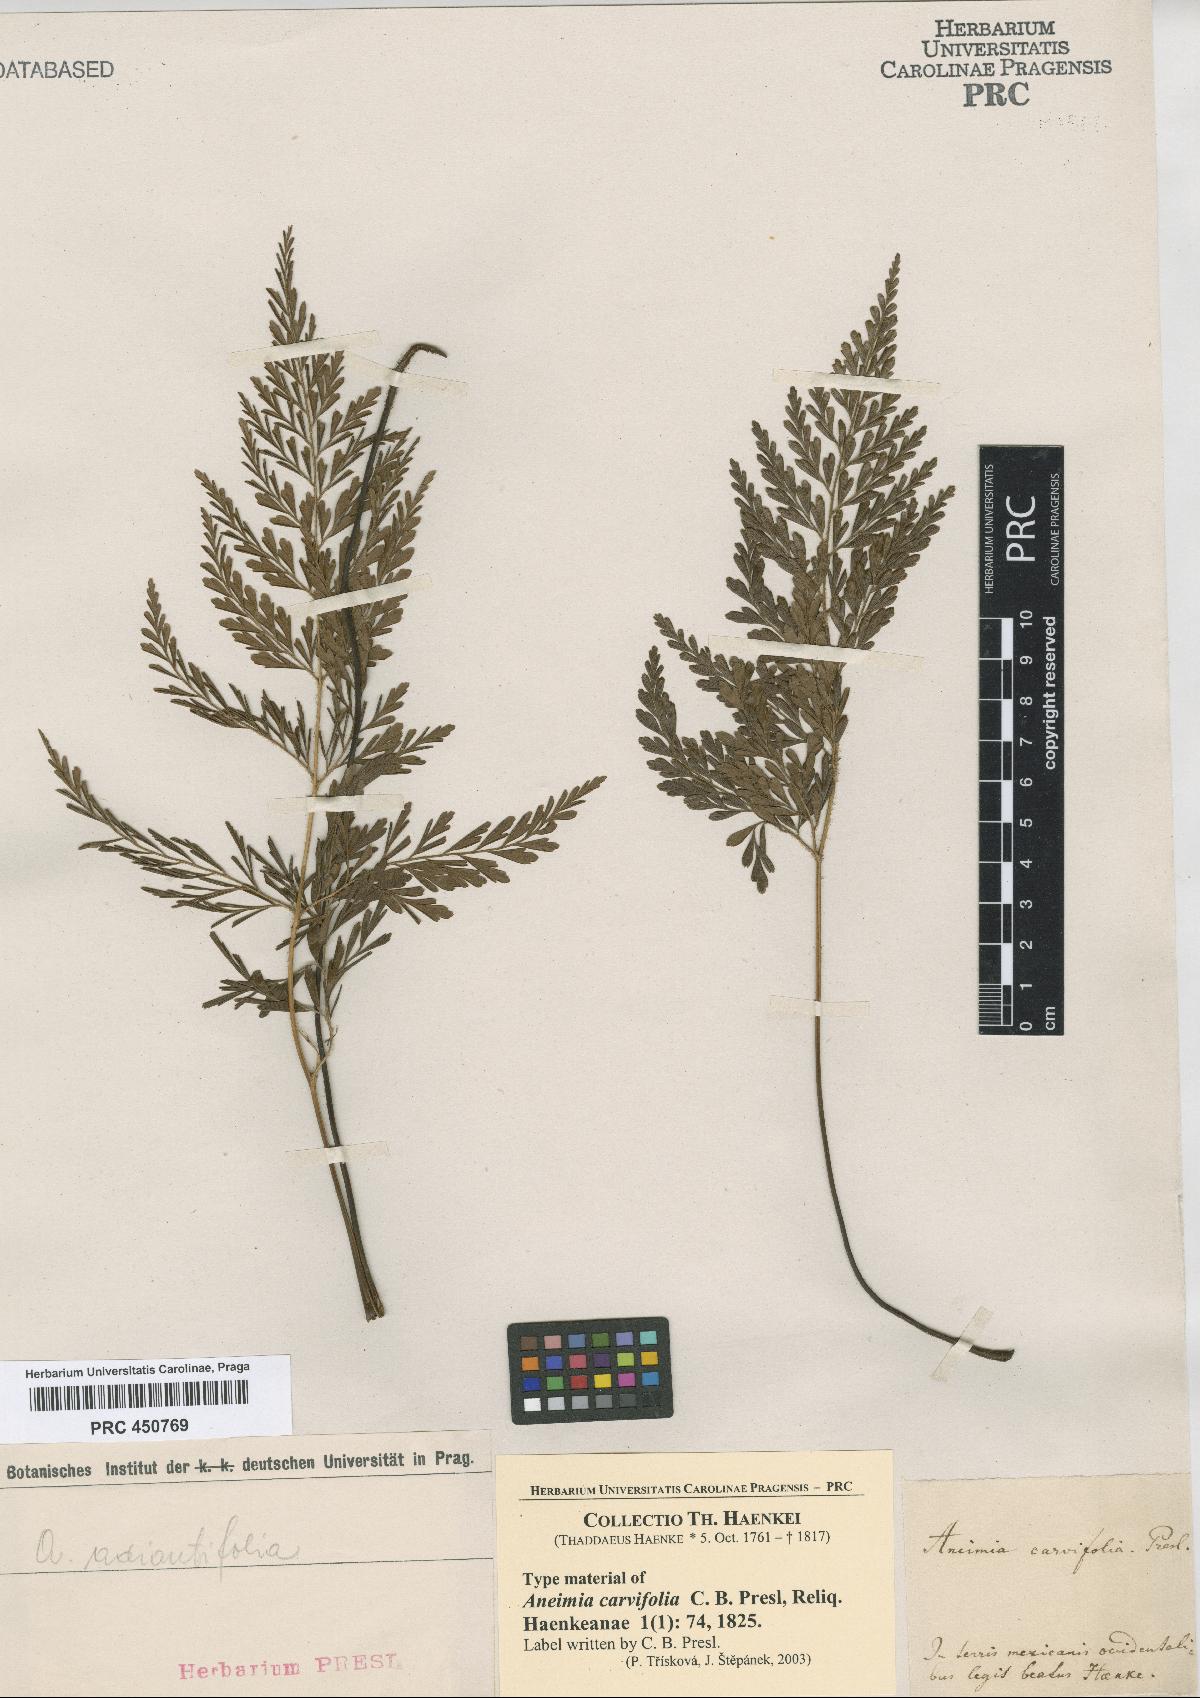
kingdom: Plantae
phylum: Tracheophyta
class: Polypodiopsida
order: Schizaeales
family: Anemiaceae
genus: Anemia
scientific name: Anemia
